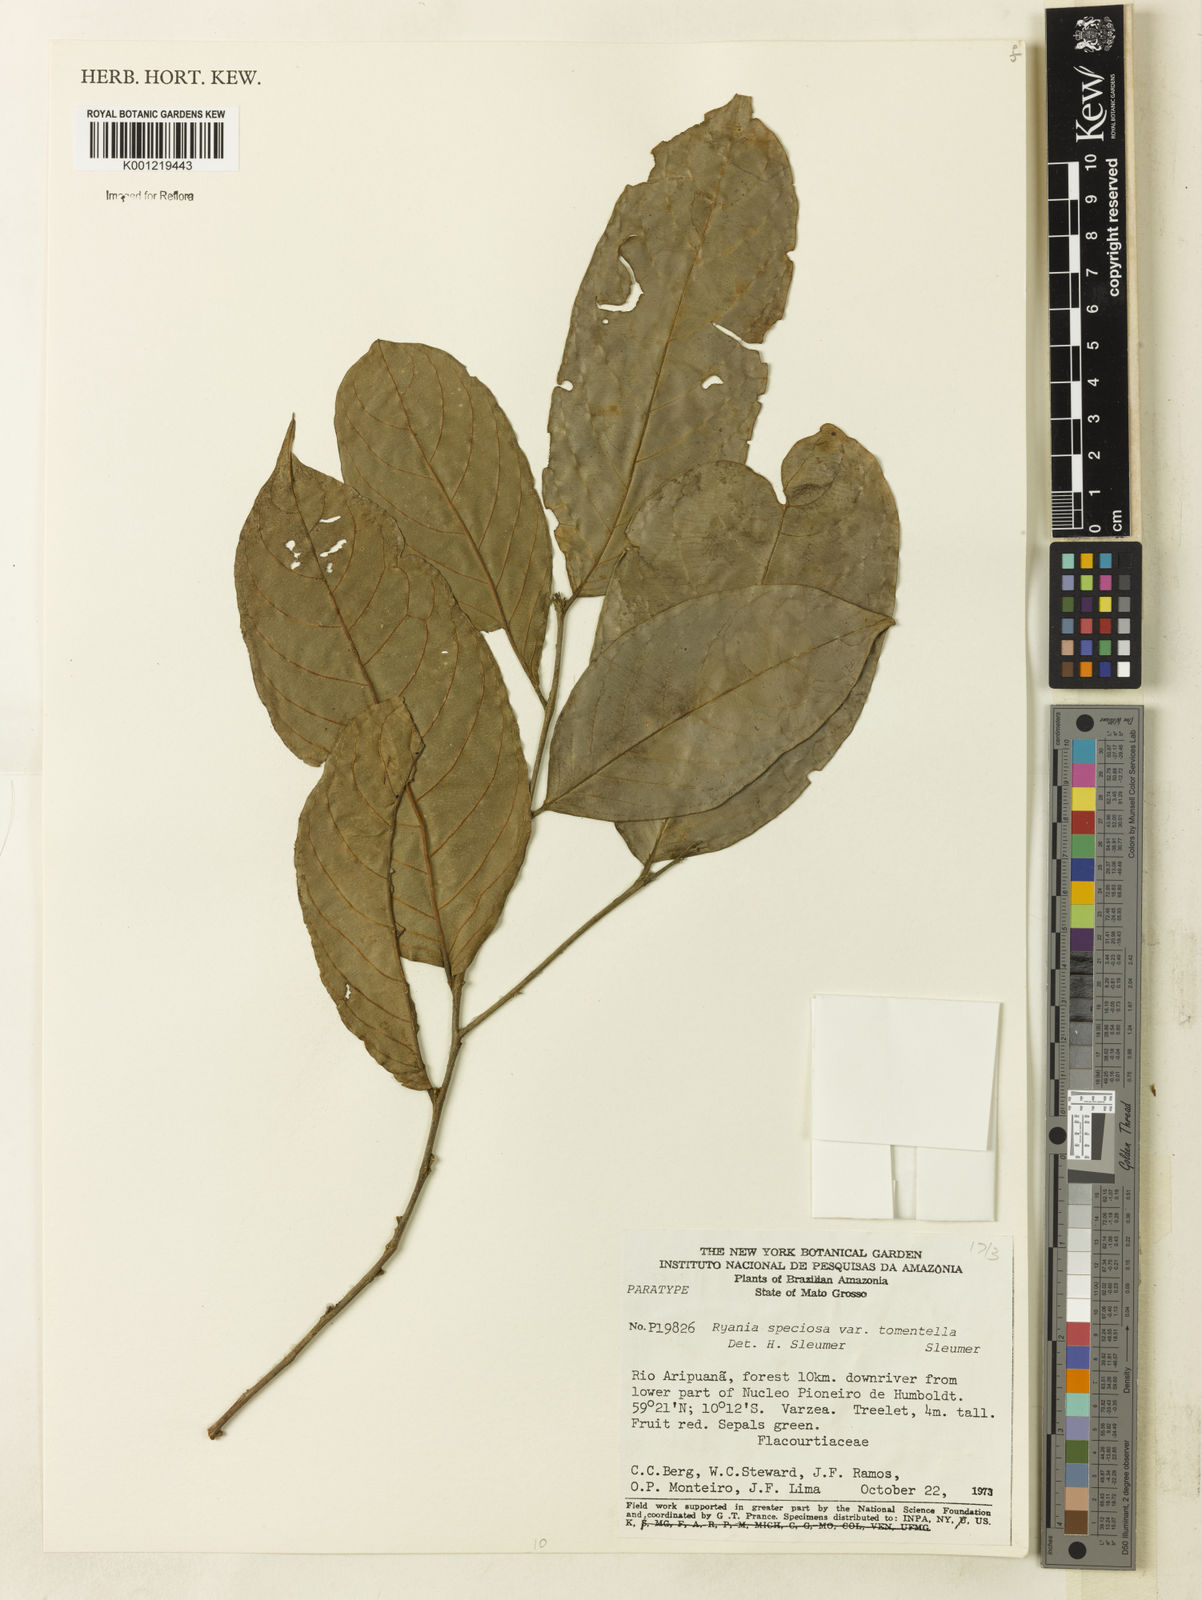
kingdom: Plantae
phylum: Tracheophyta
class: Magnoliopsida
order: Malpighiales
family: Salicaceae
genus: Ryania
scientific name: Ryania speciosa
